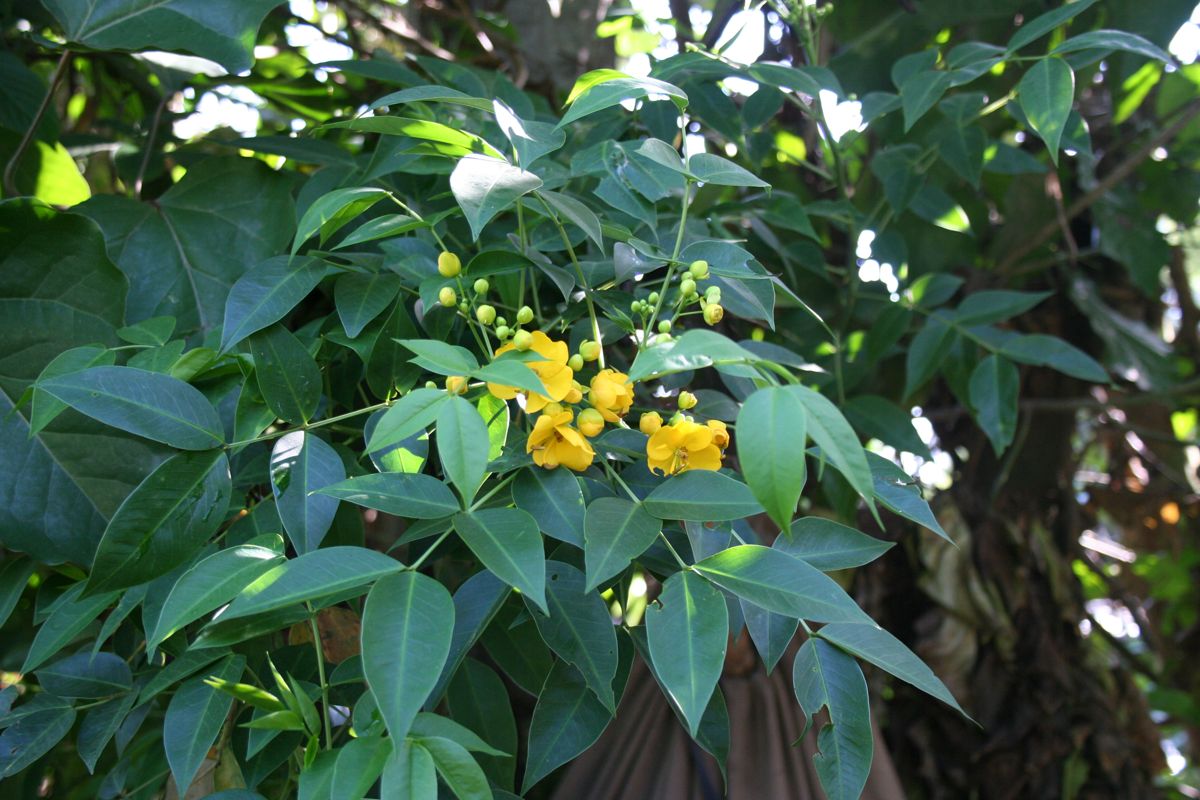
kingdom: Plantae
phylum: Tracheophyta
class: Magnoliopsida
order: Fabales
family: Fabaceae
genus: Senna
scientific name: Senna
